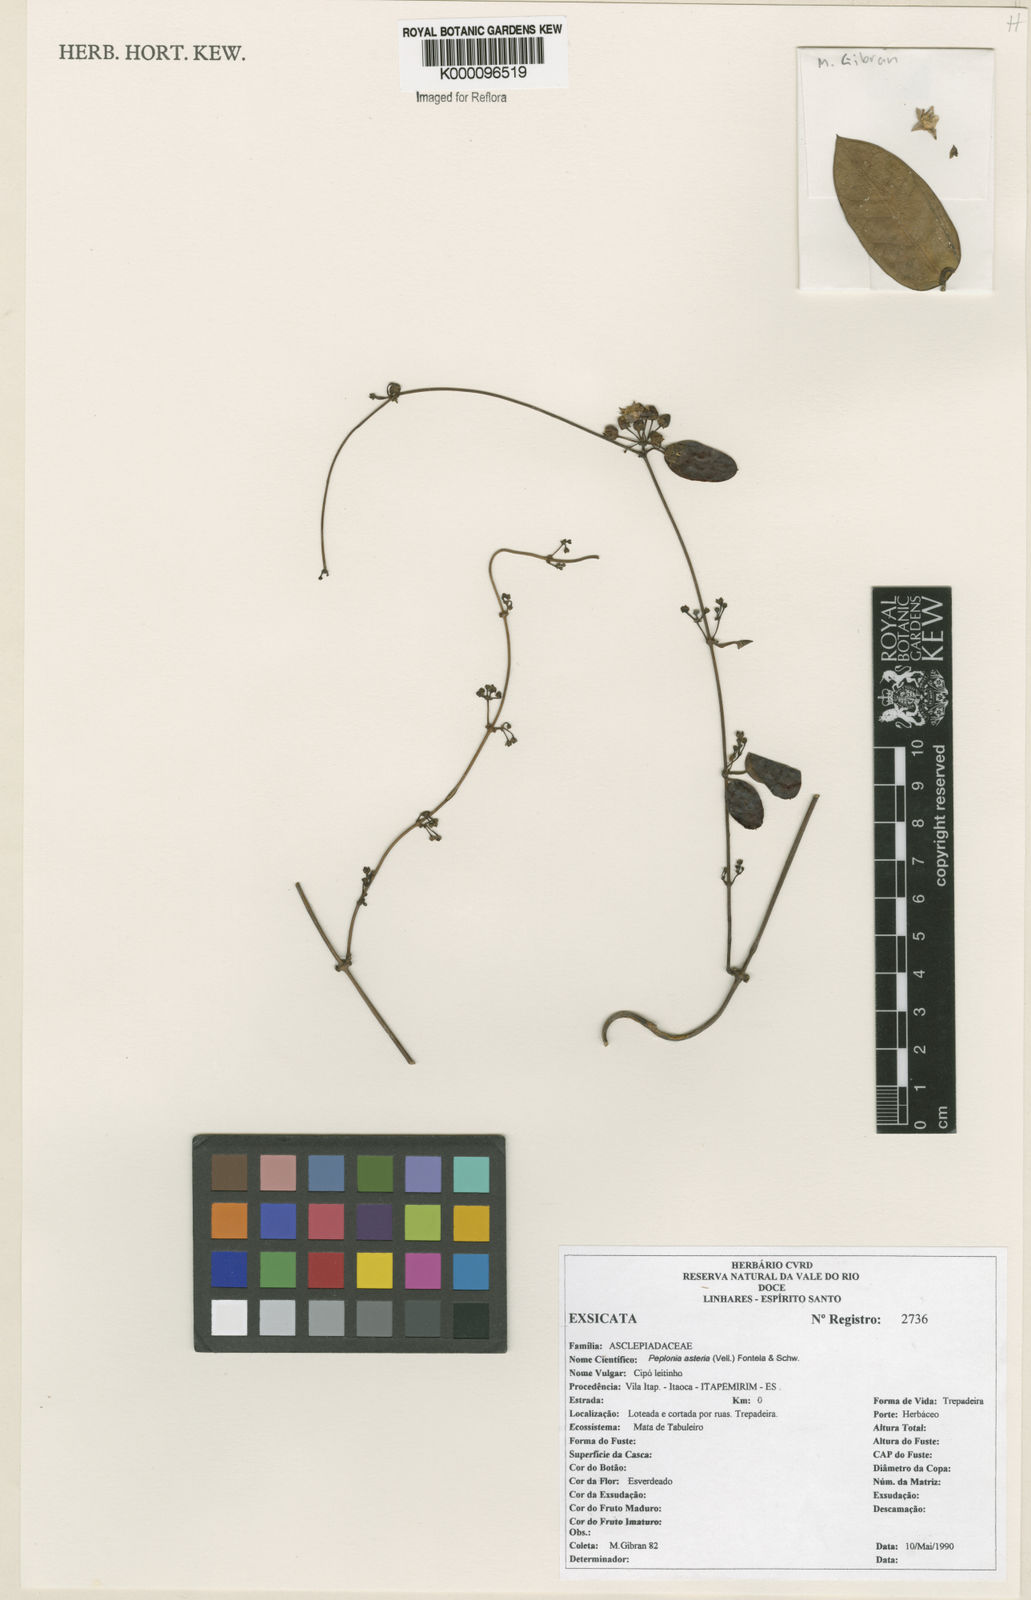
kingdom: Plantae
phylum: Tracheophyta
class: Magnoliopsida
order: Gentianales
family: Apocynaceae
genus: Peplonia
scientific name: Peplonia asteria
